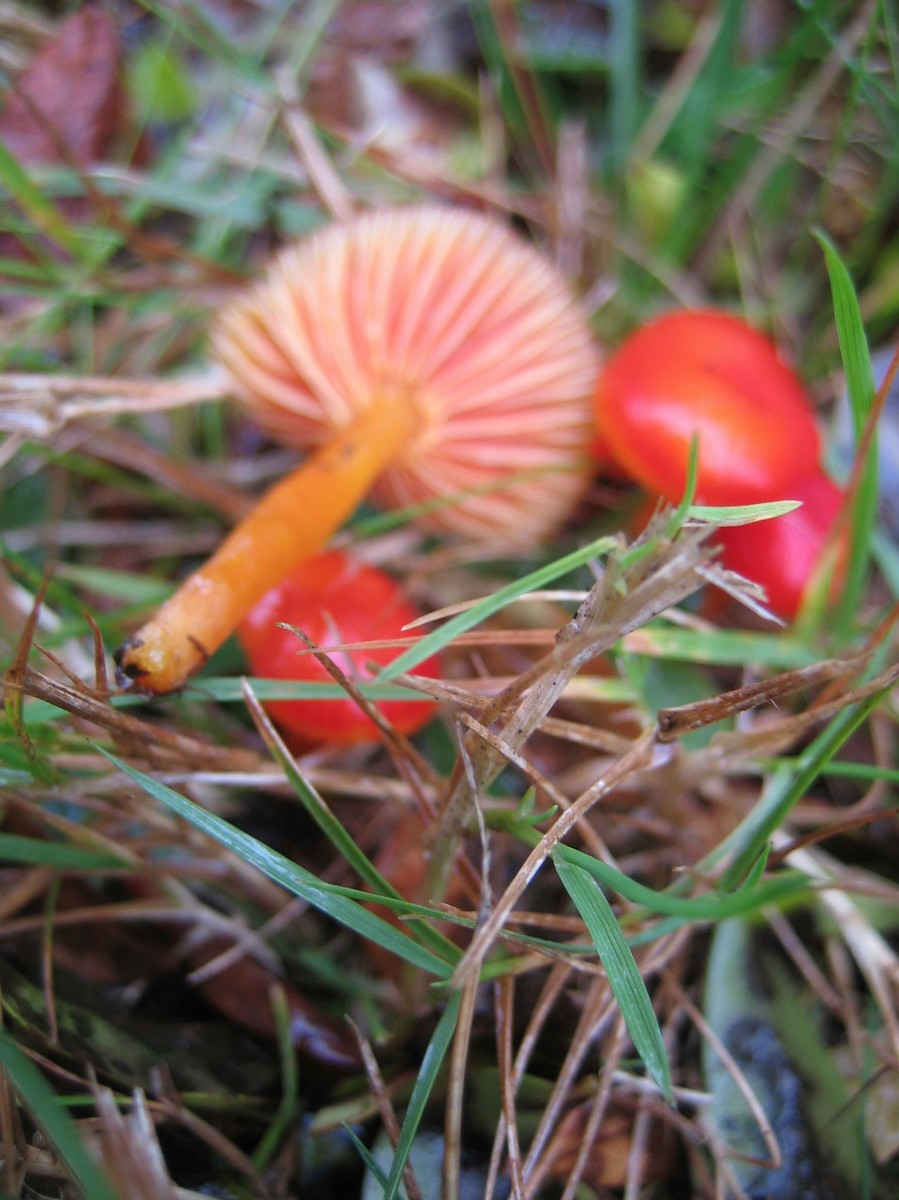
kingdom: Fungi
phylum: Basidiomycota
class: Agaricomycetes
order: Agaricales
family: Hygrophoraceae
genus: Hygrocybe
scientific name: Hygrocybe insipida
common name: liden vokshat
